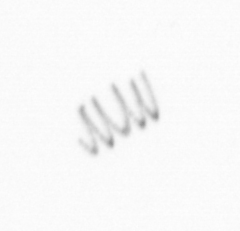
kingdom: Chromista
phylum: Ochrophyta
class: Bacillariophyceae
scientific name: Bacillariophyceae
